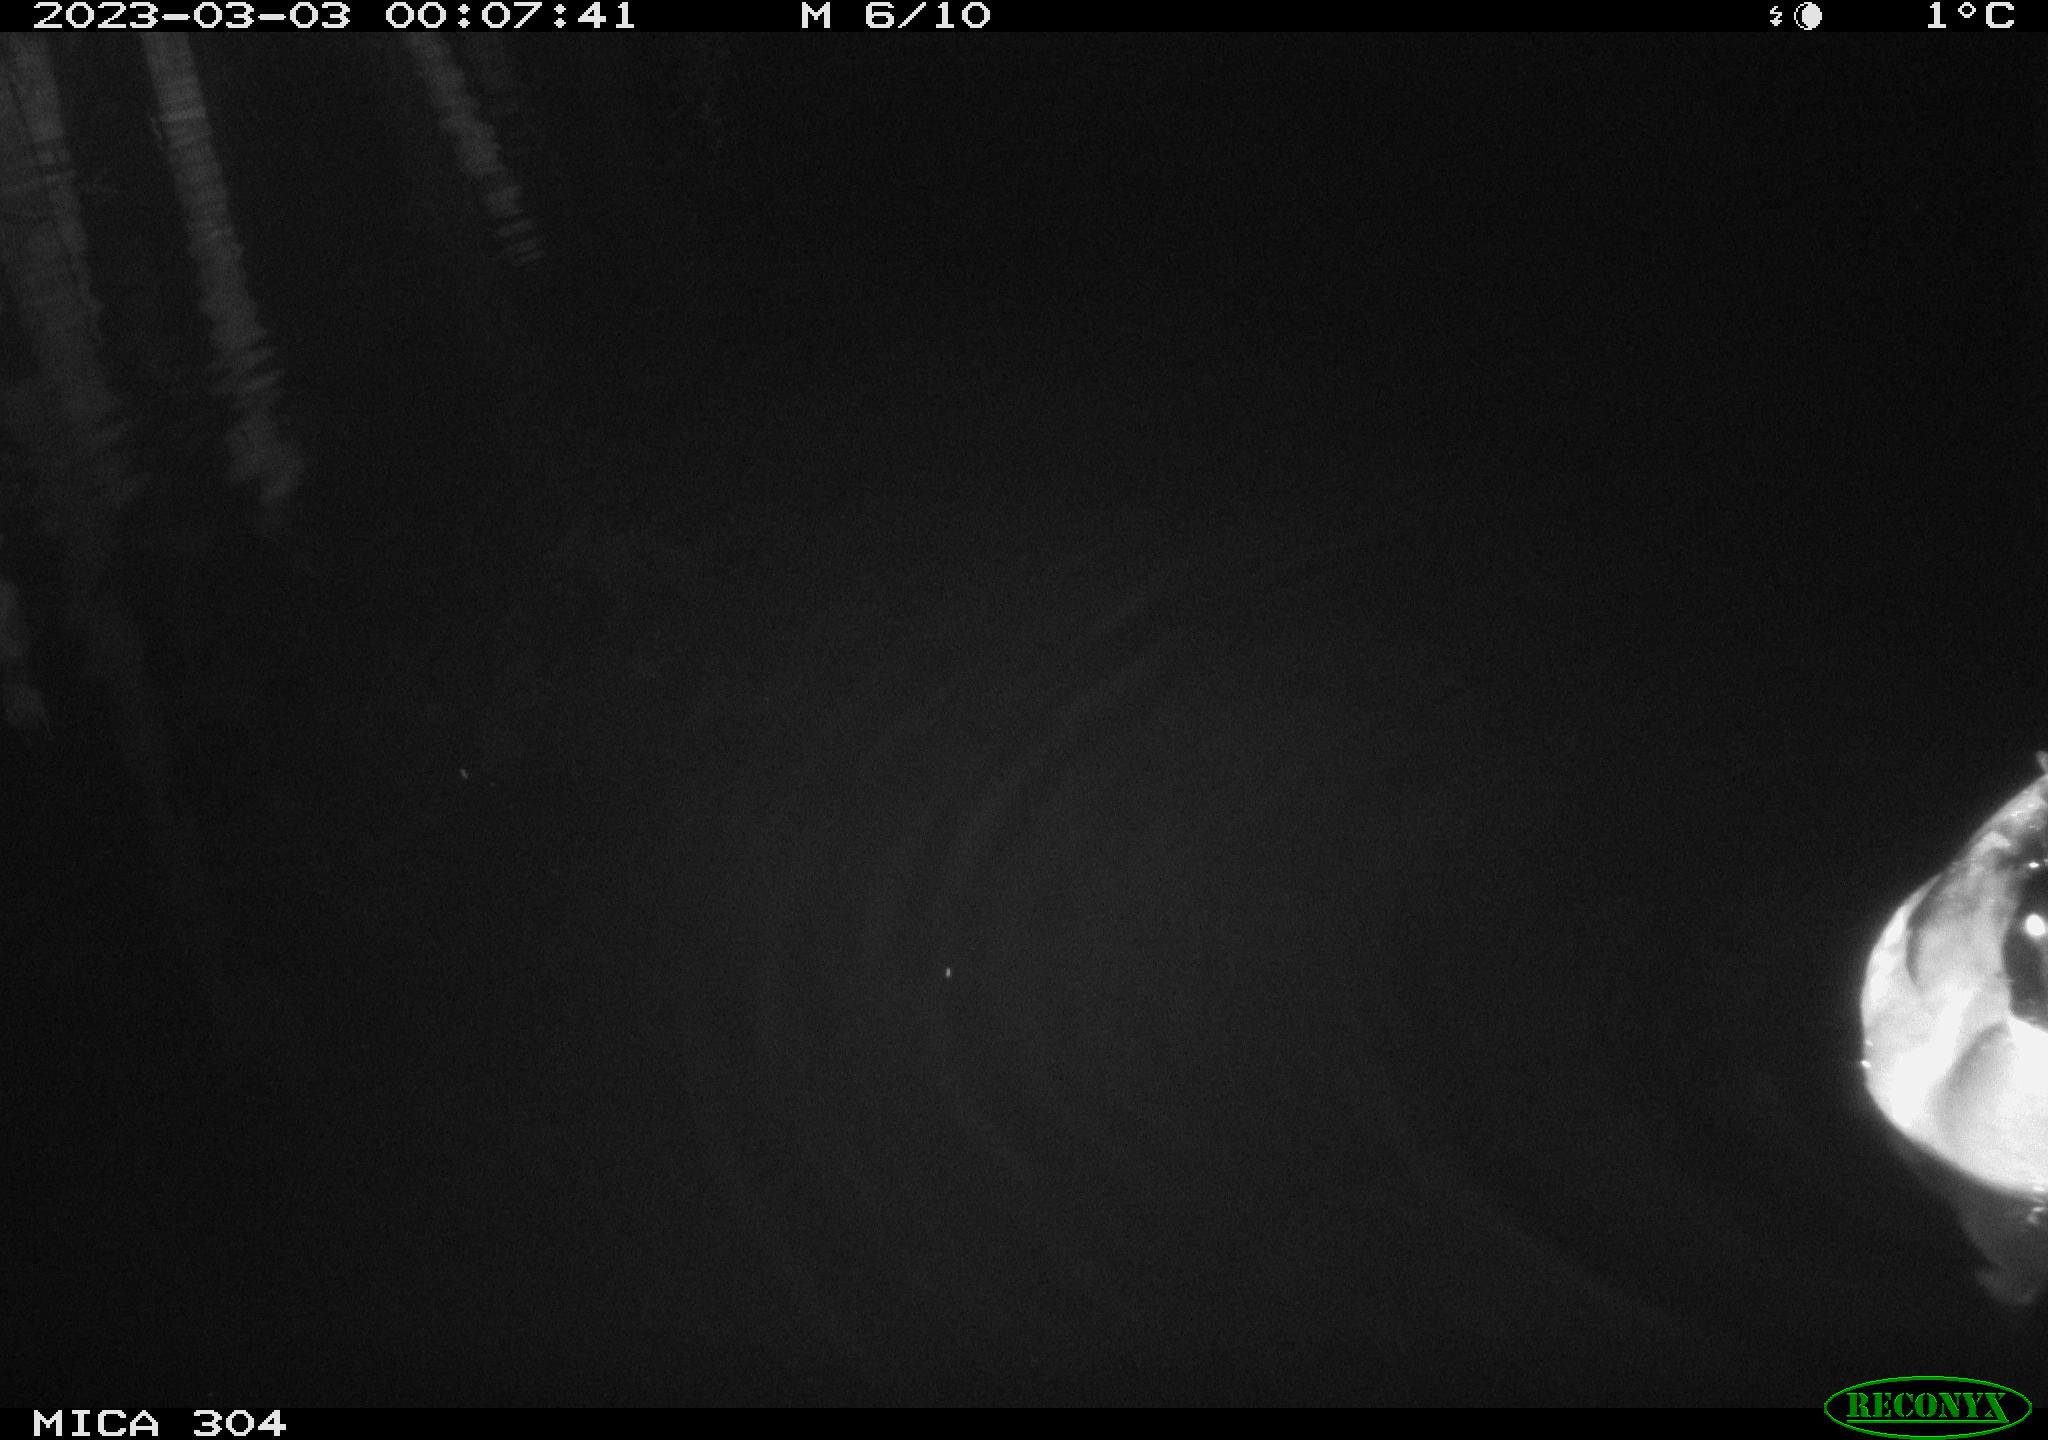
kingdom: Animalia
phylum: Chordata
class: Aves
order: Anseriformes
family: Anatidae
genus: Anas
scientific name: Anas
